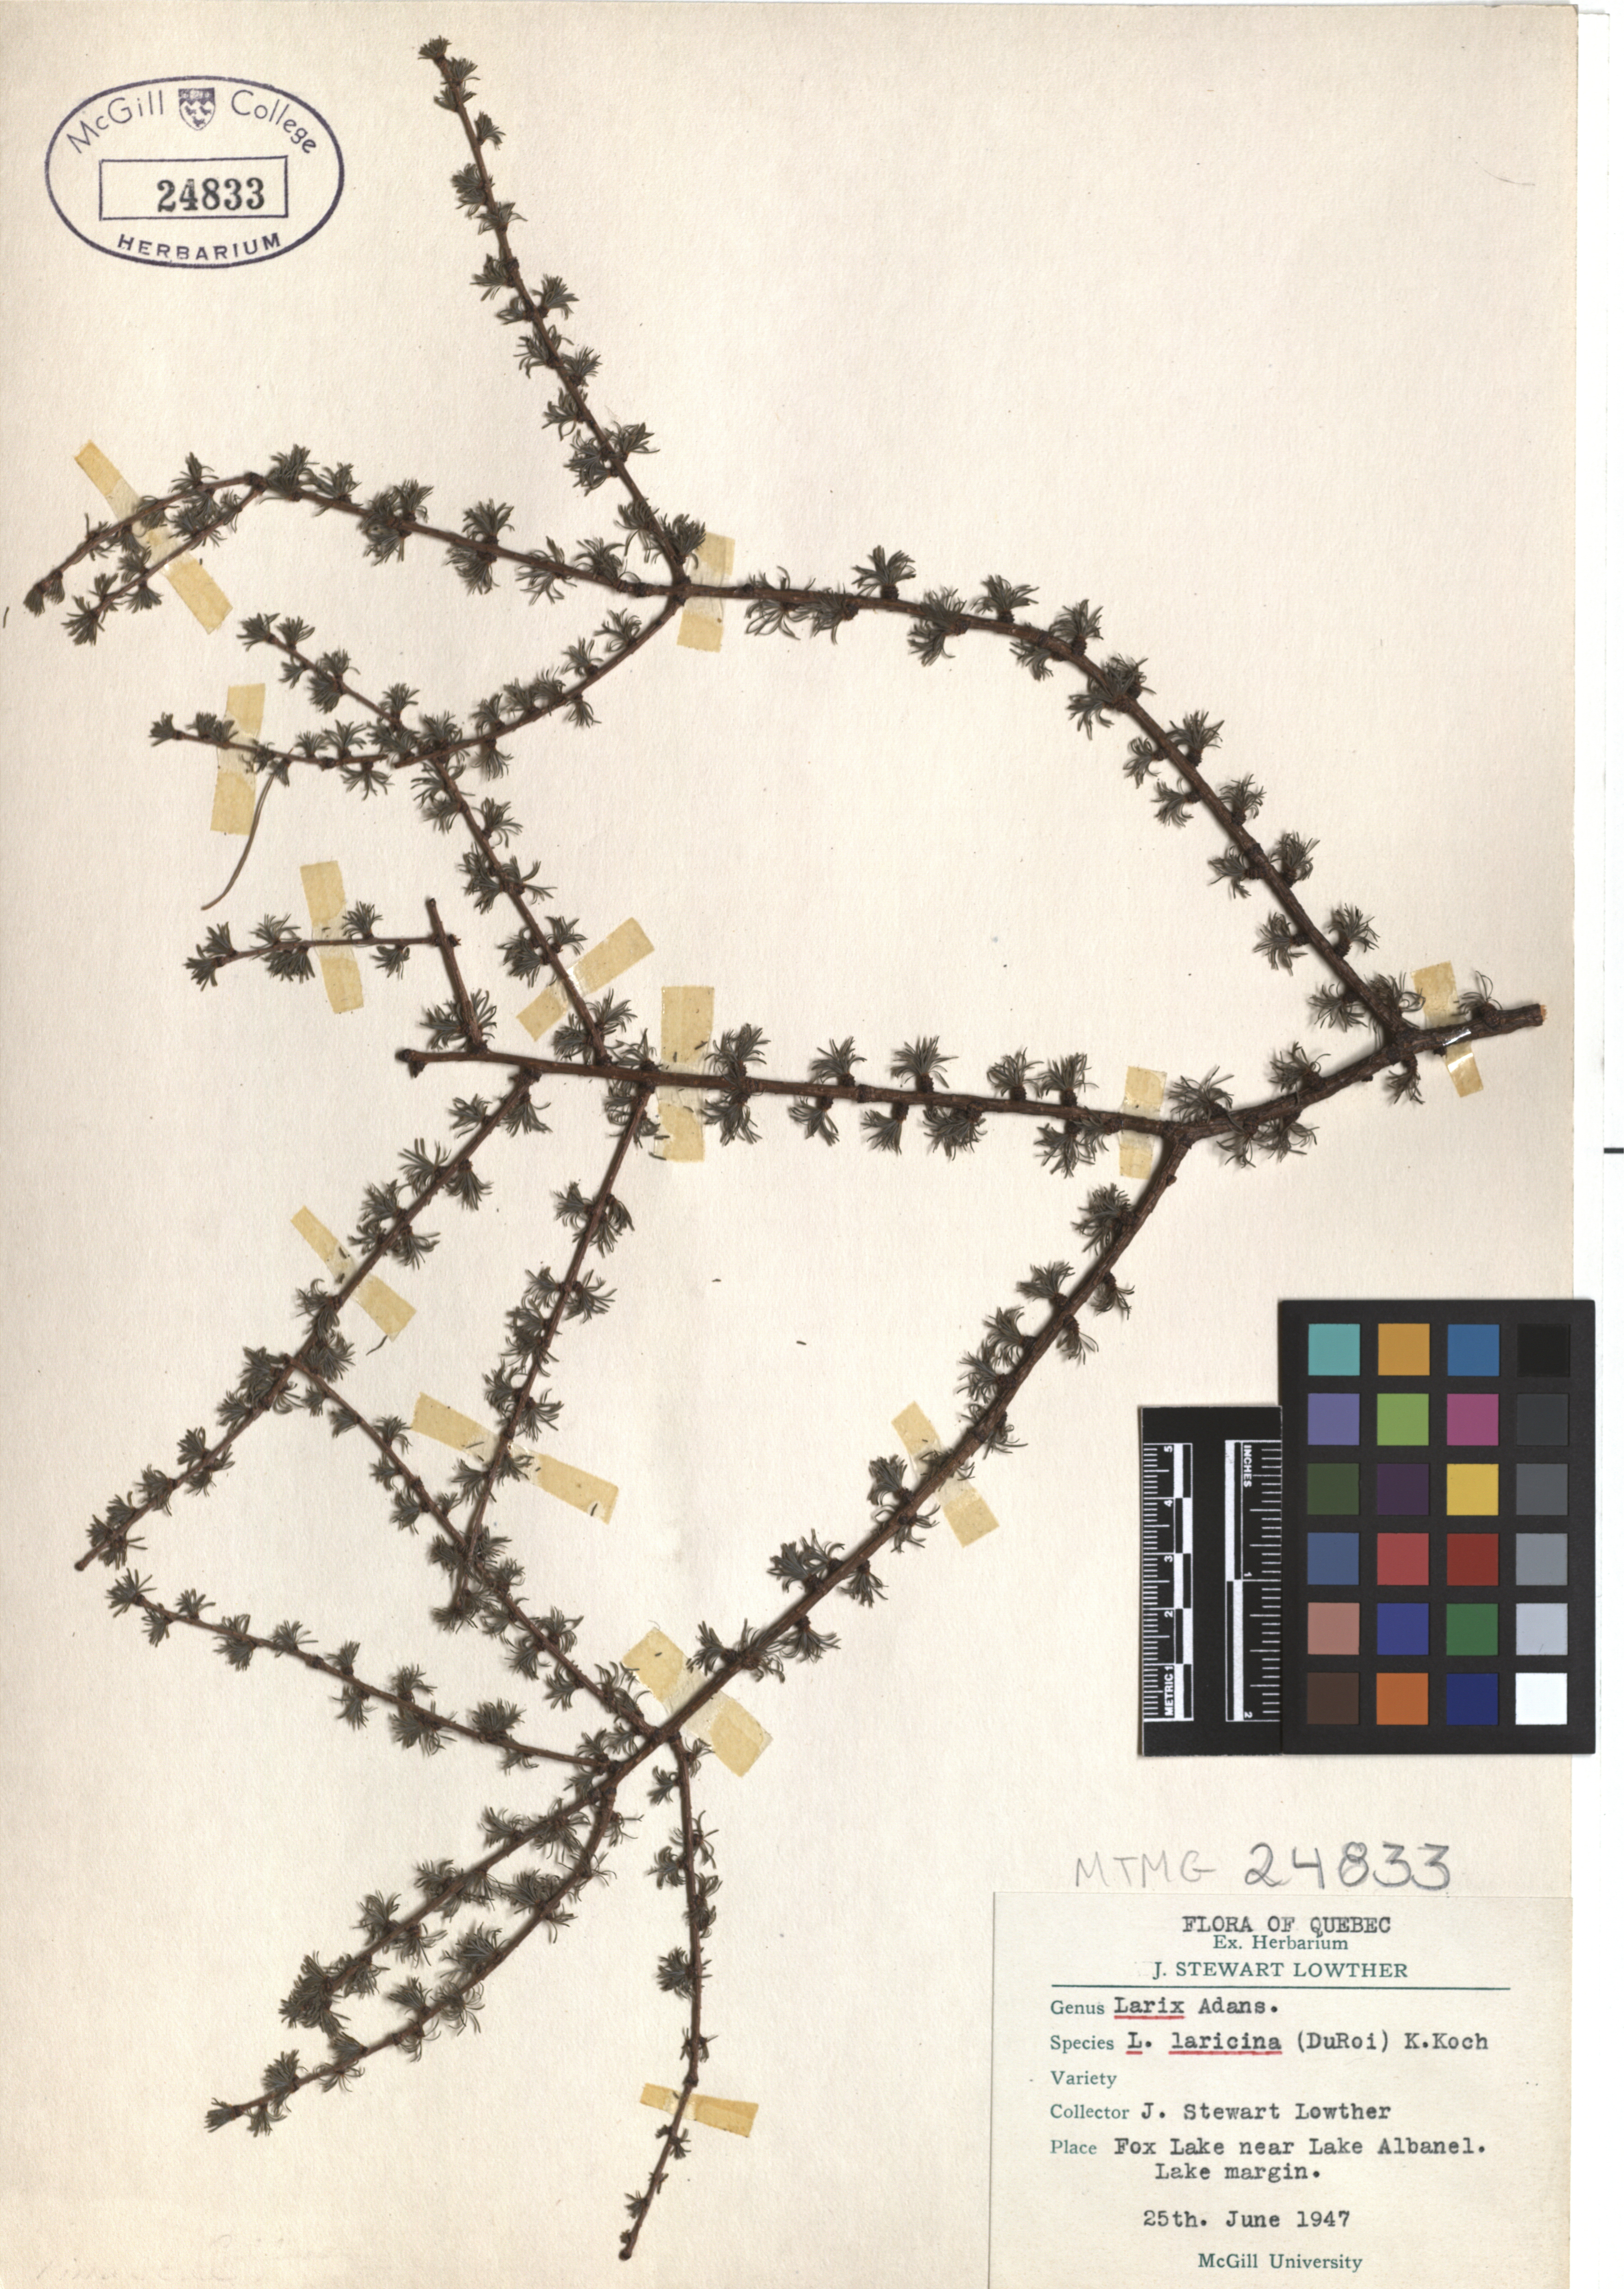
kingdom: Plantae
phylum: Tracheophyta
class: Pinopsida
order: Pinales
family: Pinaceae
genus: Larix
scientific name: Larix laricina
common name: American larch
